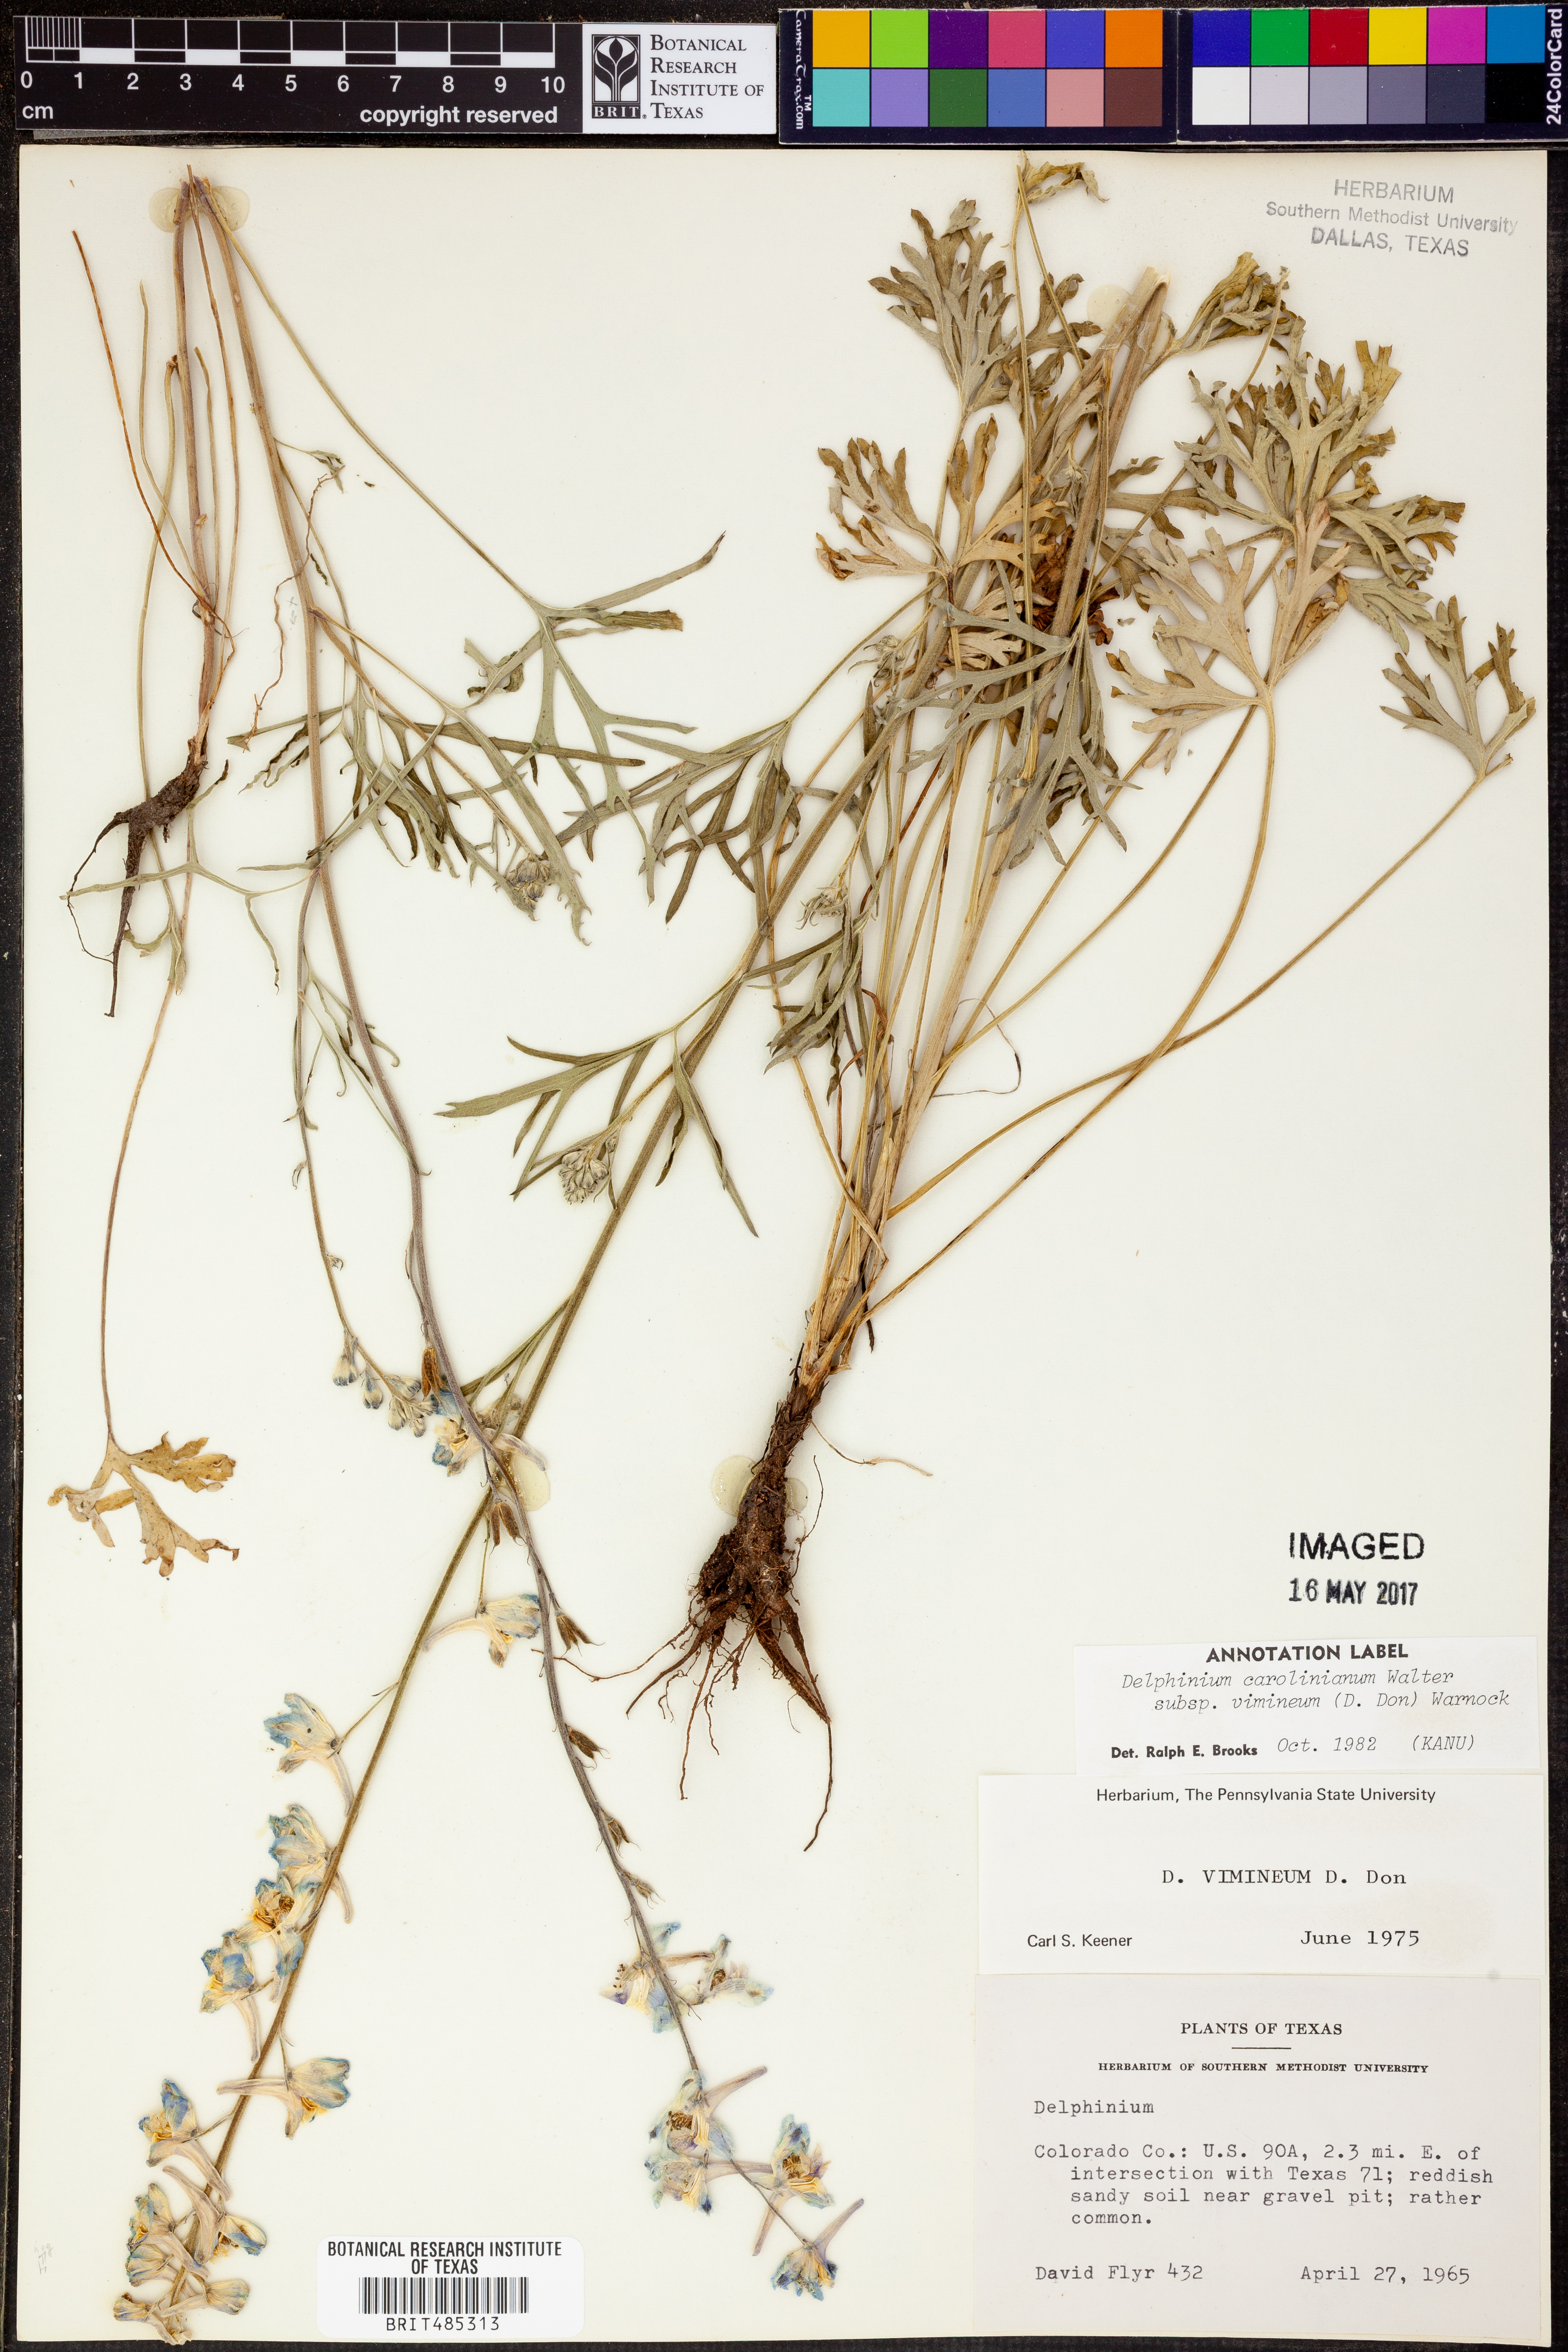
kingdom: Plantae
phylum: Tracheophyta
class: Magnoliopsida
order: Ranunculales
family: Ranunculaceae
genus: Delphinium
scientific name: Delphinium carolinianum
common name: Carolina larkspur
